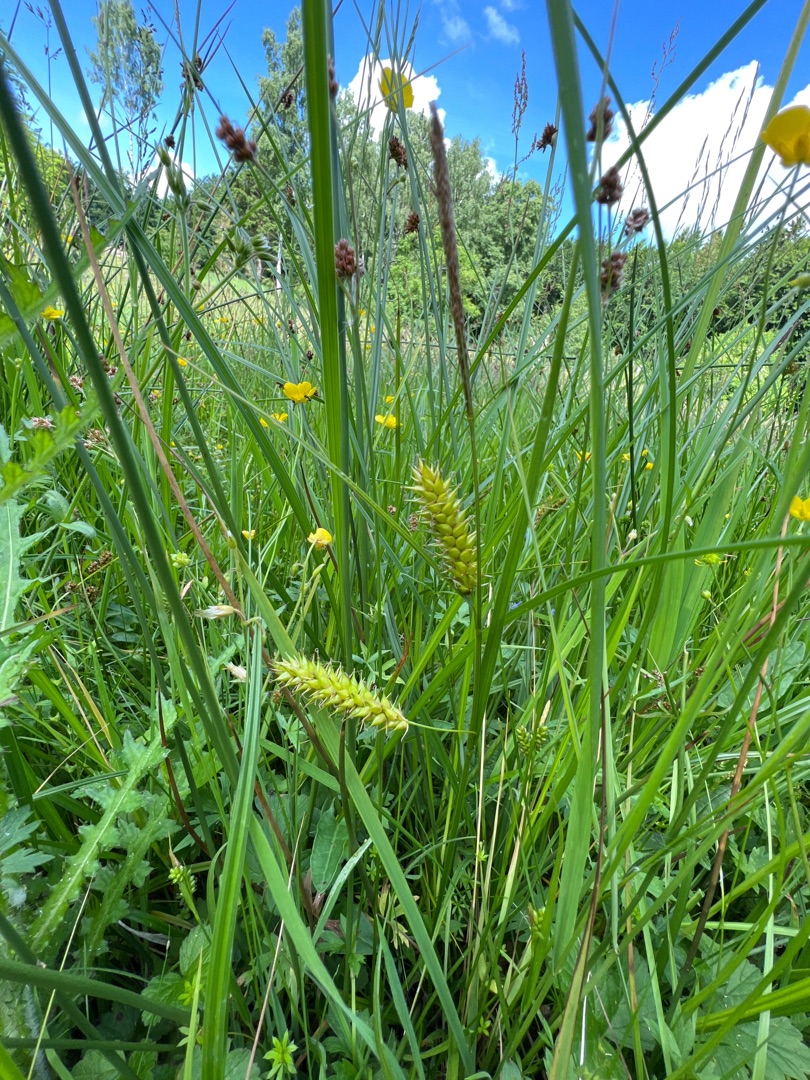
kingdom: Plantae
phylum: Tracheophyta
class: Liliopsida
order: Poales
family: Cyperaceae
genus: Carex
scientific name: Carex vesicaria
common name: Blære-star
